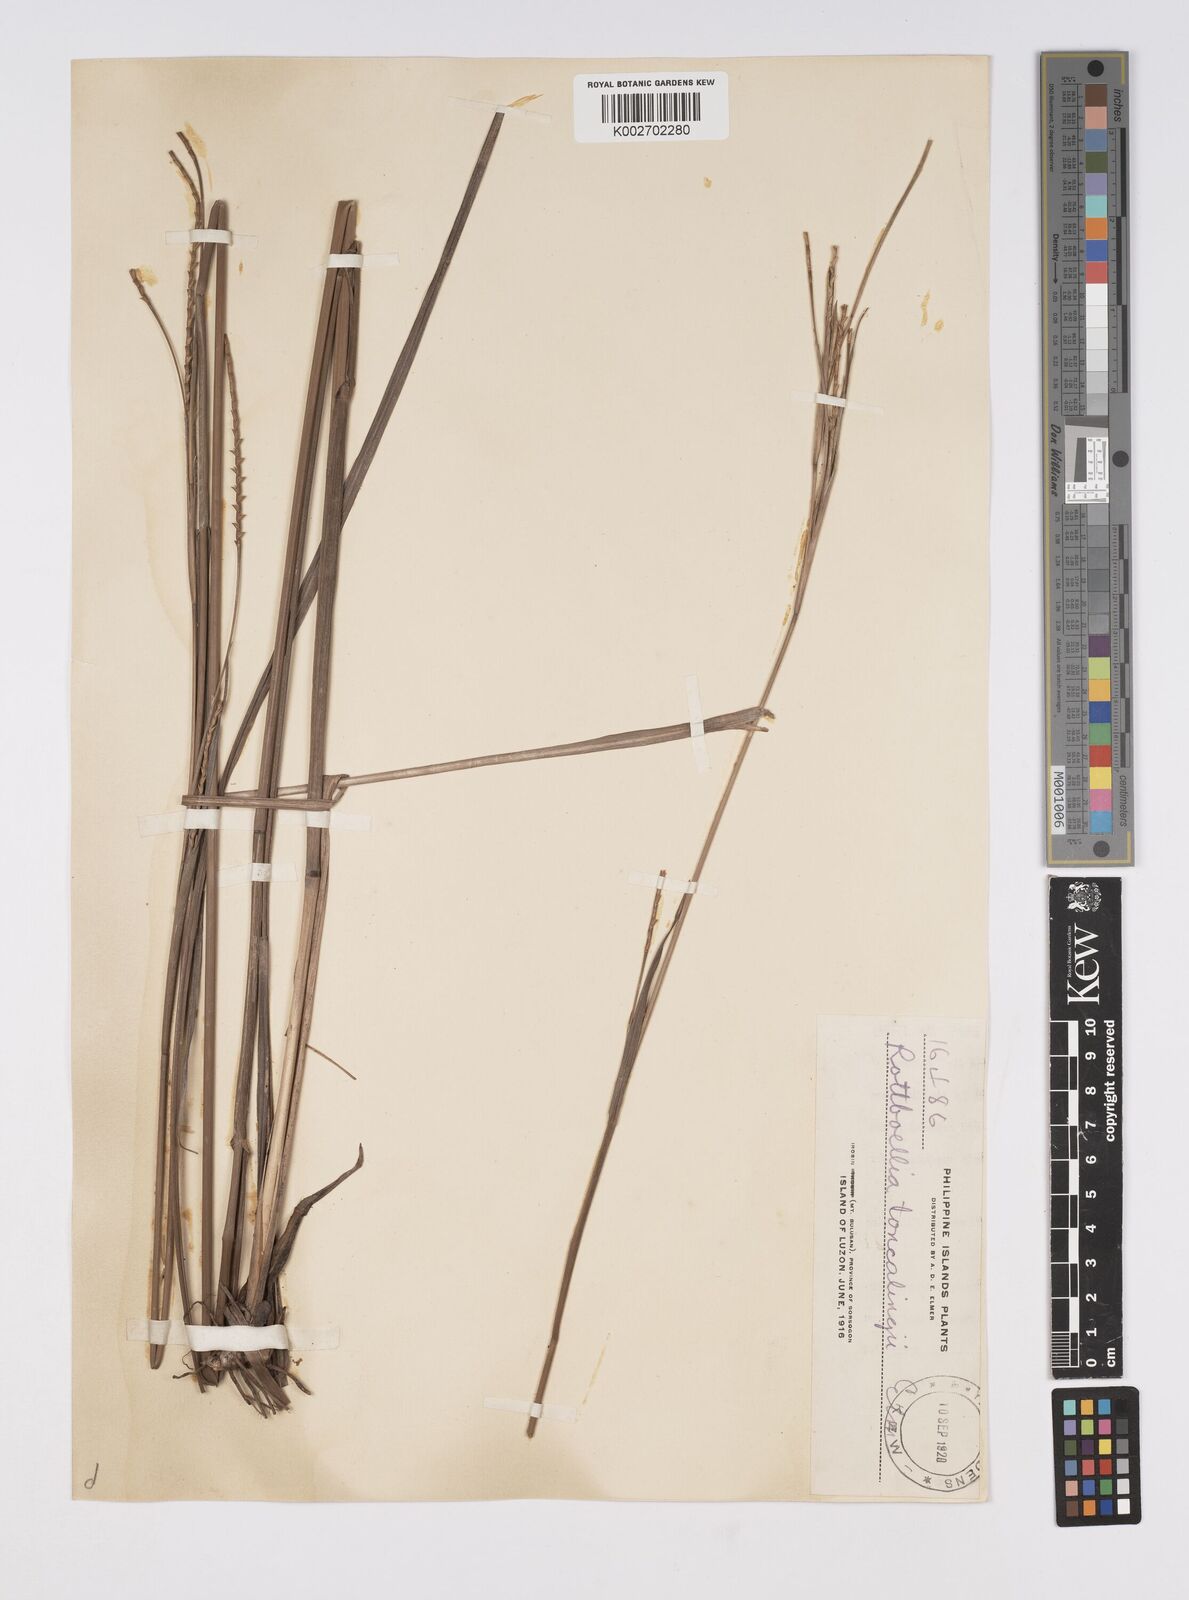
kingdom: Plantae
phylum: Tracheophyta
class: Liliopsida
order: Poales
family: Poaceae
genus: Ophiuros
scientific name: Ophiuros exaltatus
